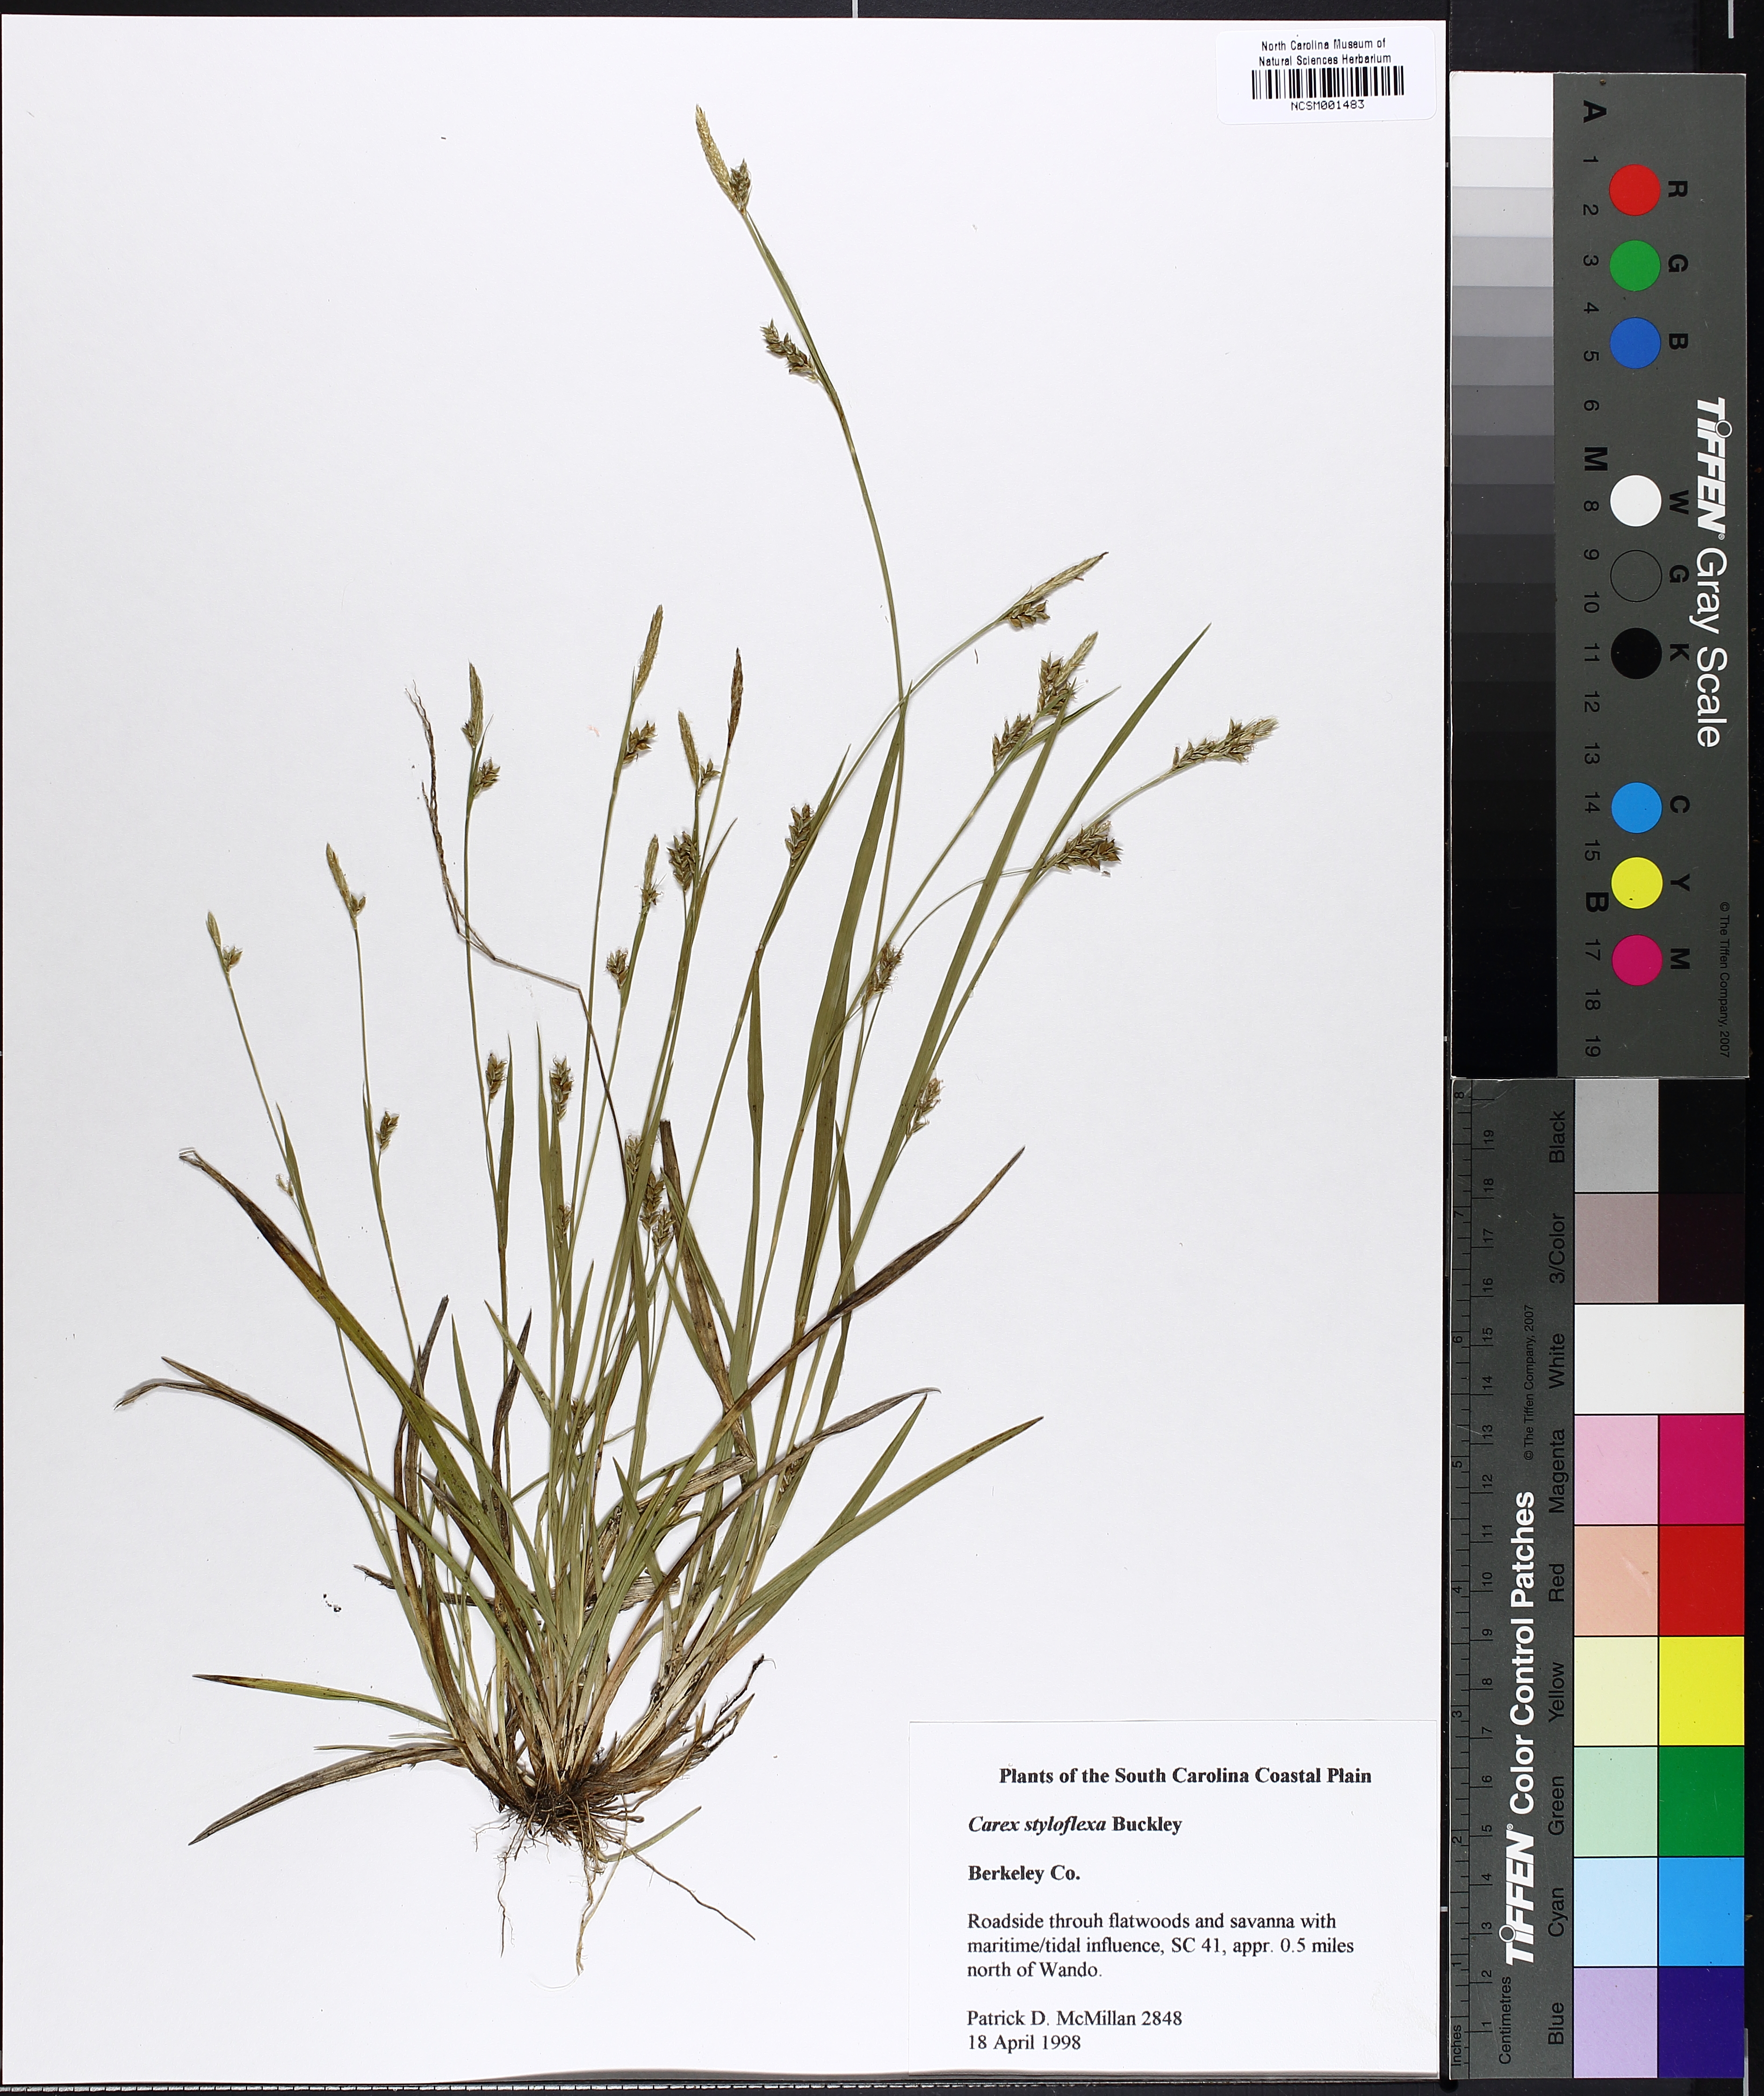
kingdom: Plantae
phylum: Tracheophyta
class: Liliopsida
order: Poales
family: Cyperaceae
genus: Carex
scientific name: Carex styloflexa
